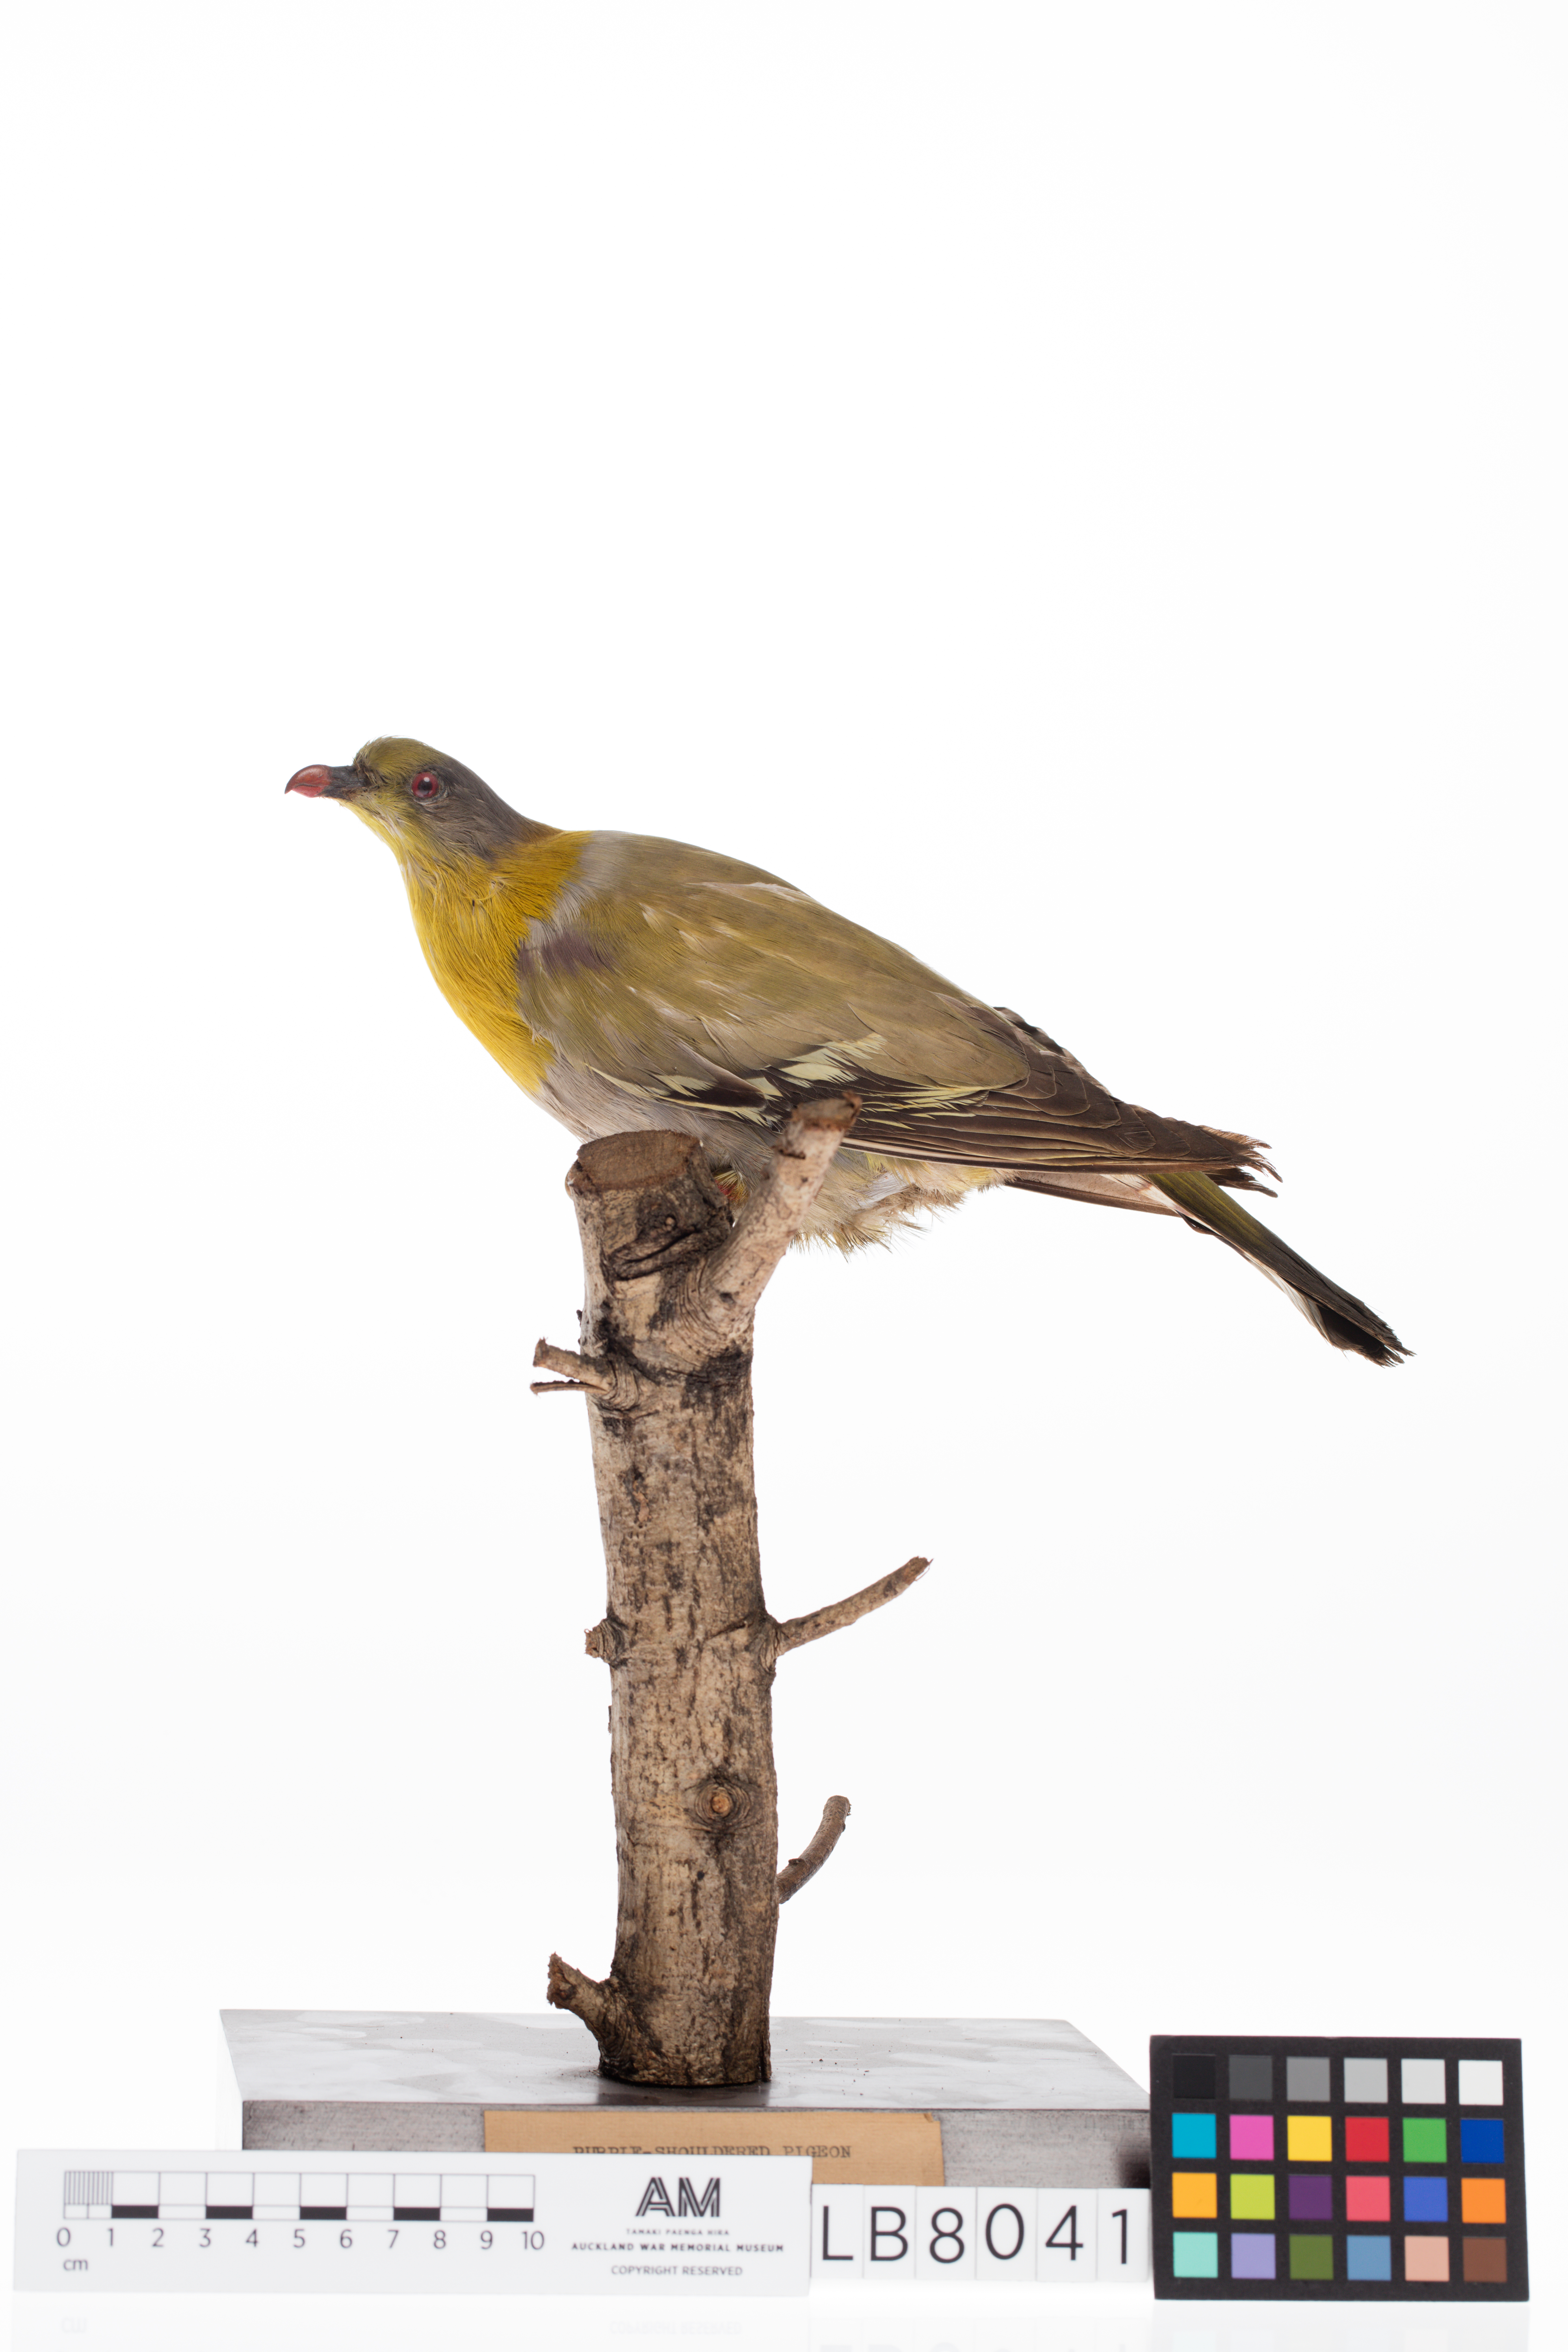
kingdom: Animalia
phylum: Chordata
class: Aves
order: Columbiformes
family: Columbidae
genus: Treron
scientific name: Treron phoenicopterus
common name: Yellow-footed green pigeon
